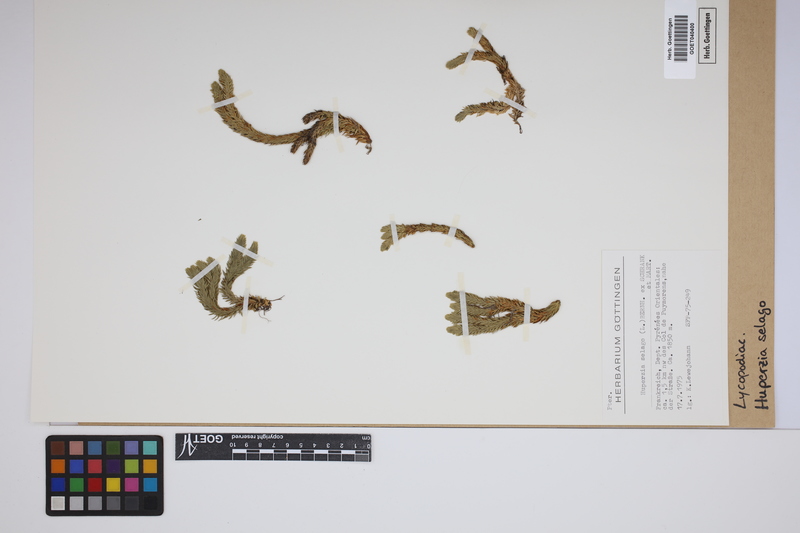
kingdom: Plantae
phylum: Tracheophyta
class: Lycopodiopsida
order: Lycopodiales
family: Lycopodiaceae
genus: Huperzia
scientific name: Huperzia selago
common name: Northern firmoss
